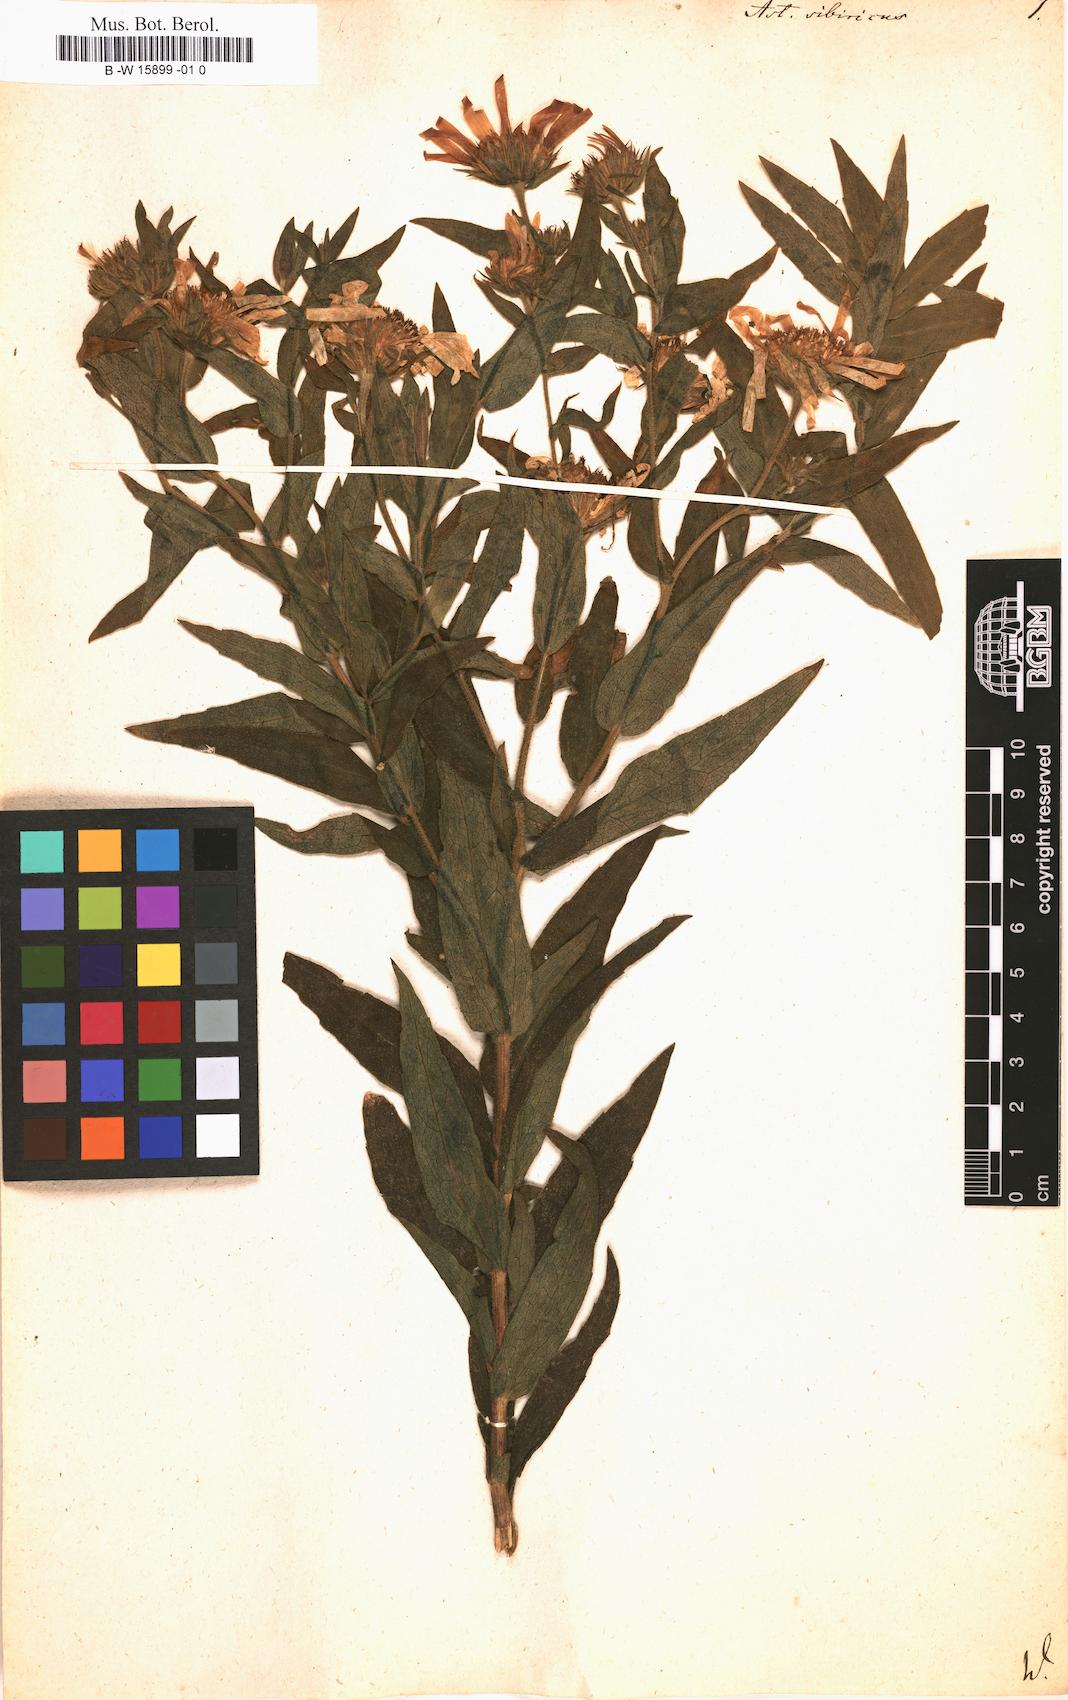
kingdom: Plantae
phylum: Tracheophyta
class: Magnoliopsida
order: Asterales
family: Asteraceae
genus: Eurybia
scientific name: Eurybia sibirica
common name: Arctic aster
